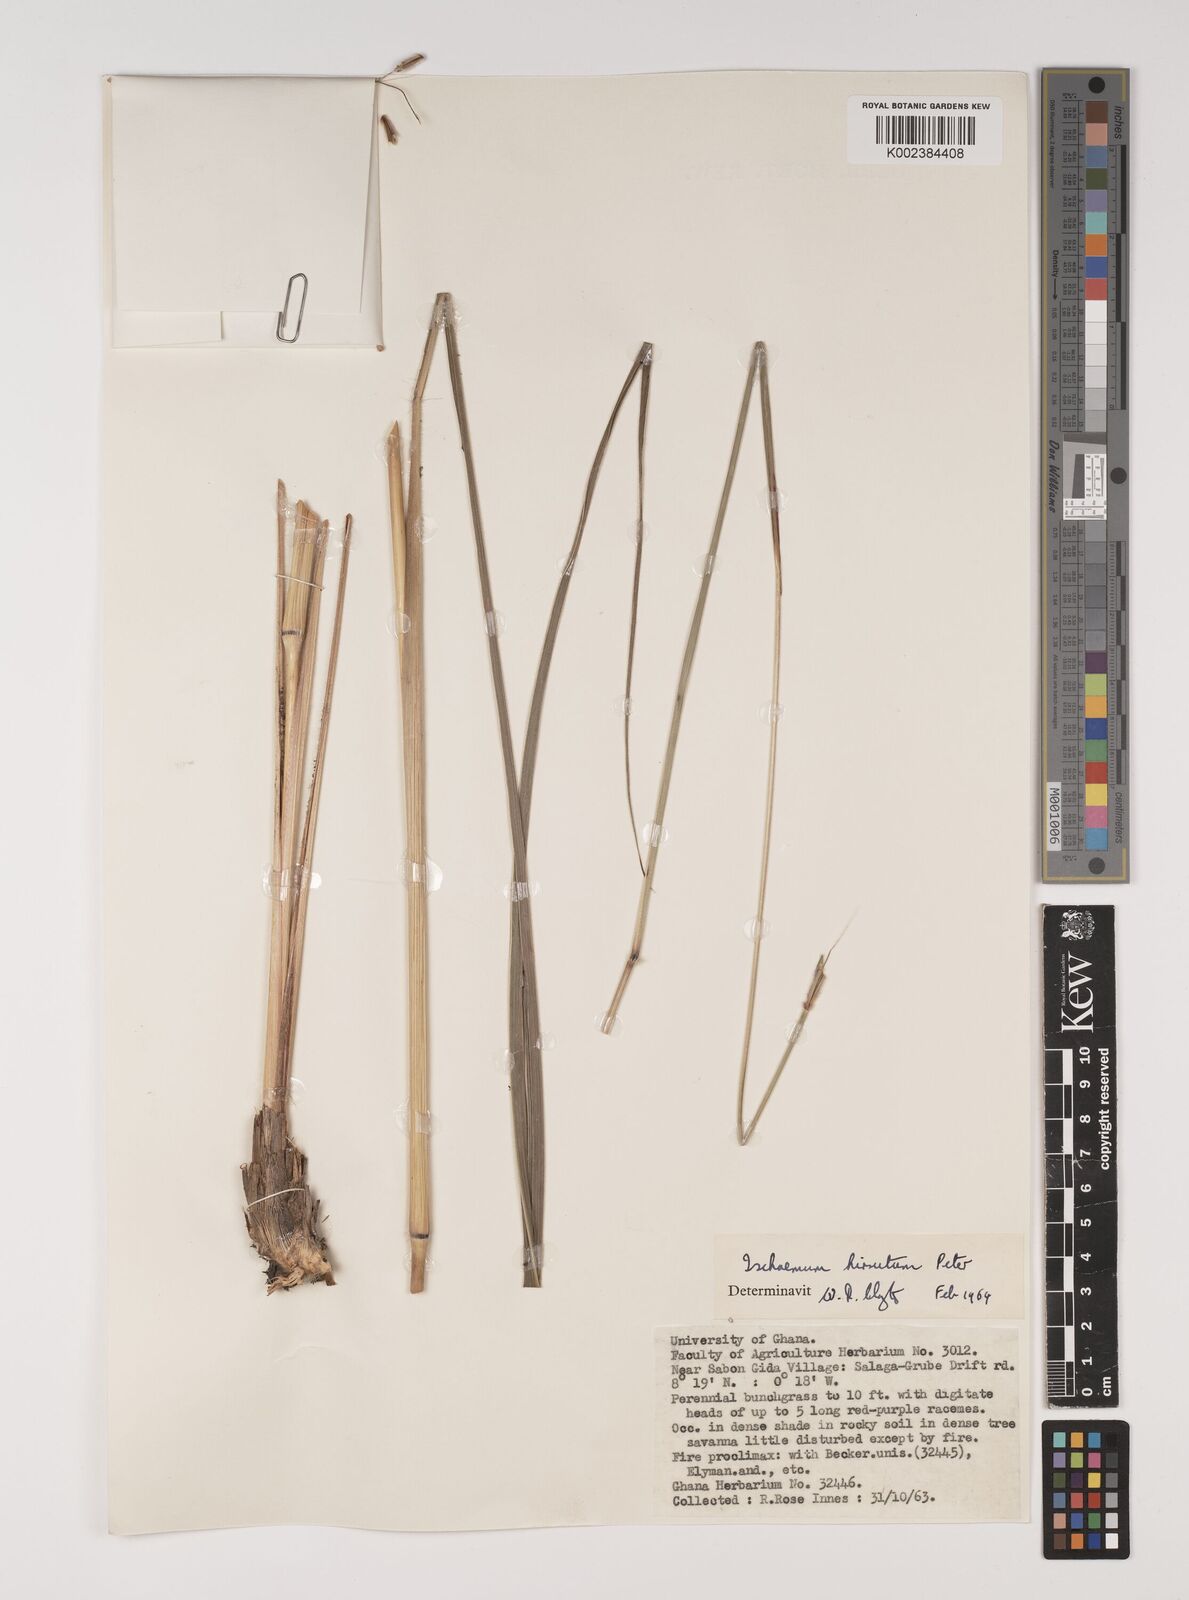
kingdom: Plantae
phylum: Tracheophyta
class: Liliopsida
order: Poales
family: Poaceae
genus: Rottboellia
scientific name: Rottboellia villosa
